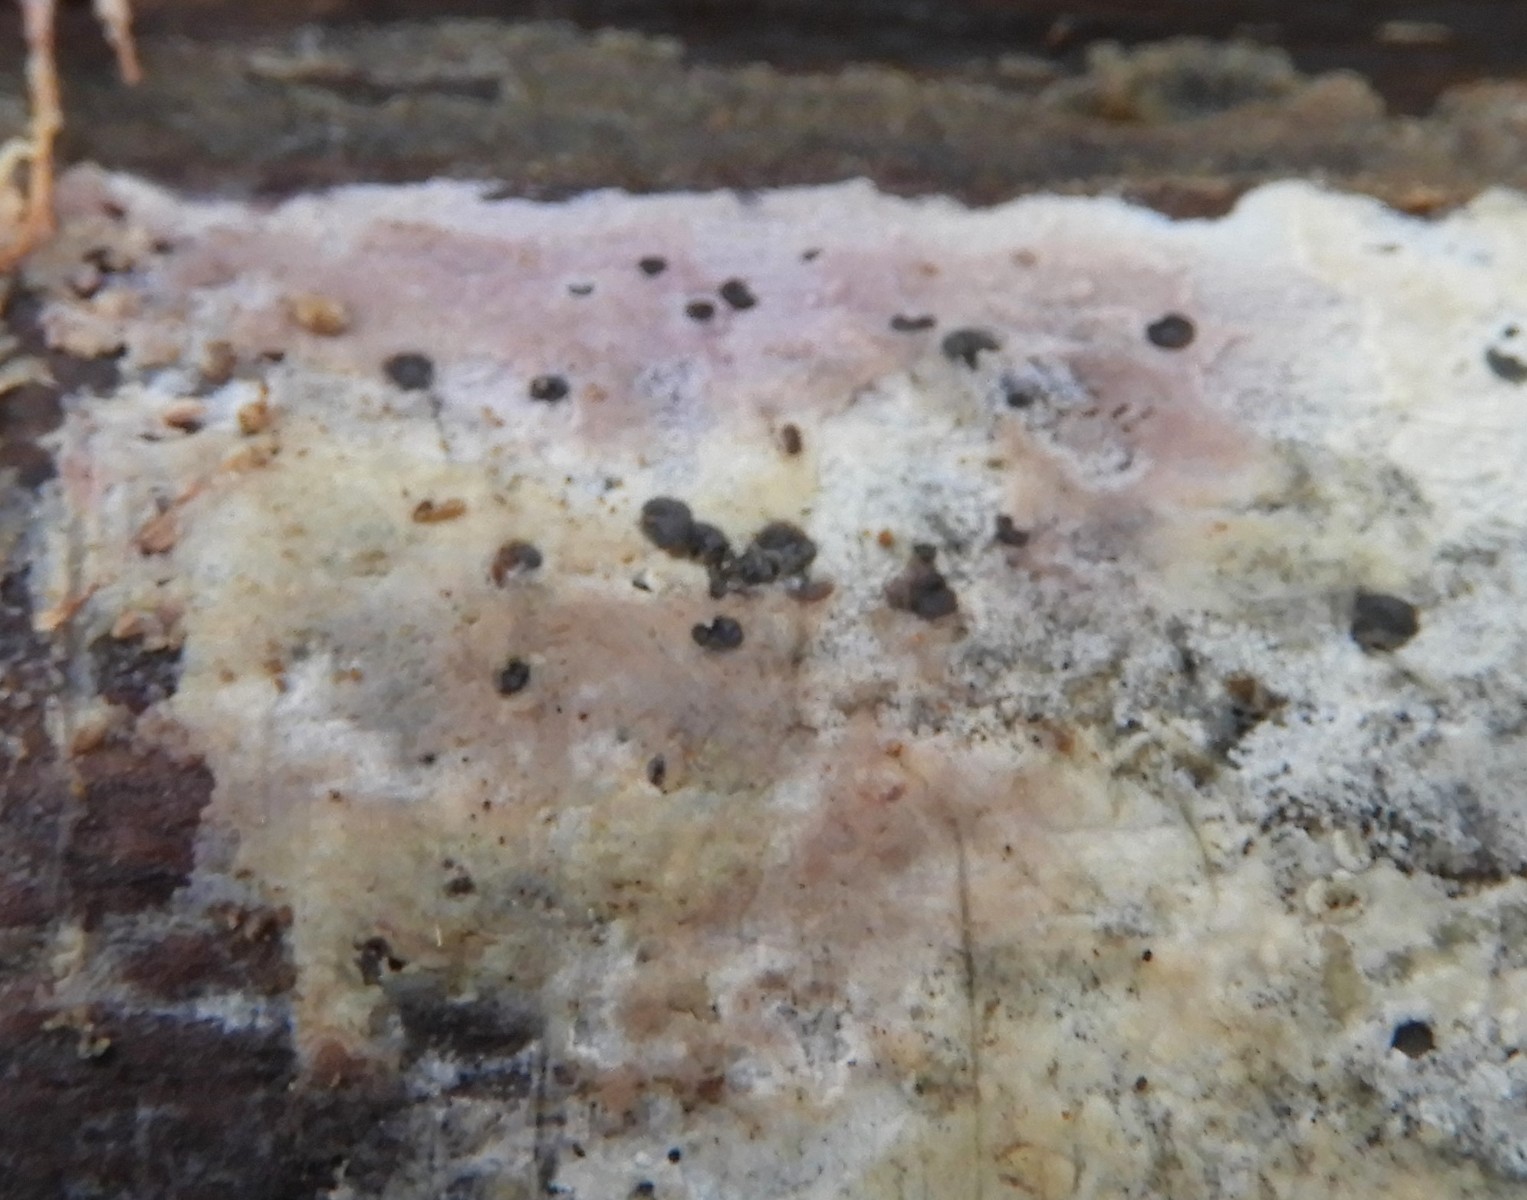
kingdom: Fungi
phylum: Basidiomycota
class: Agaricomycetes
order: Corticiales
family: Corticiaceae
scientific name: Corticiaceae
